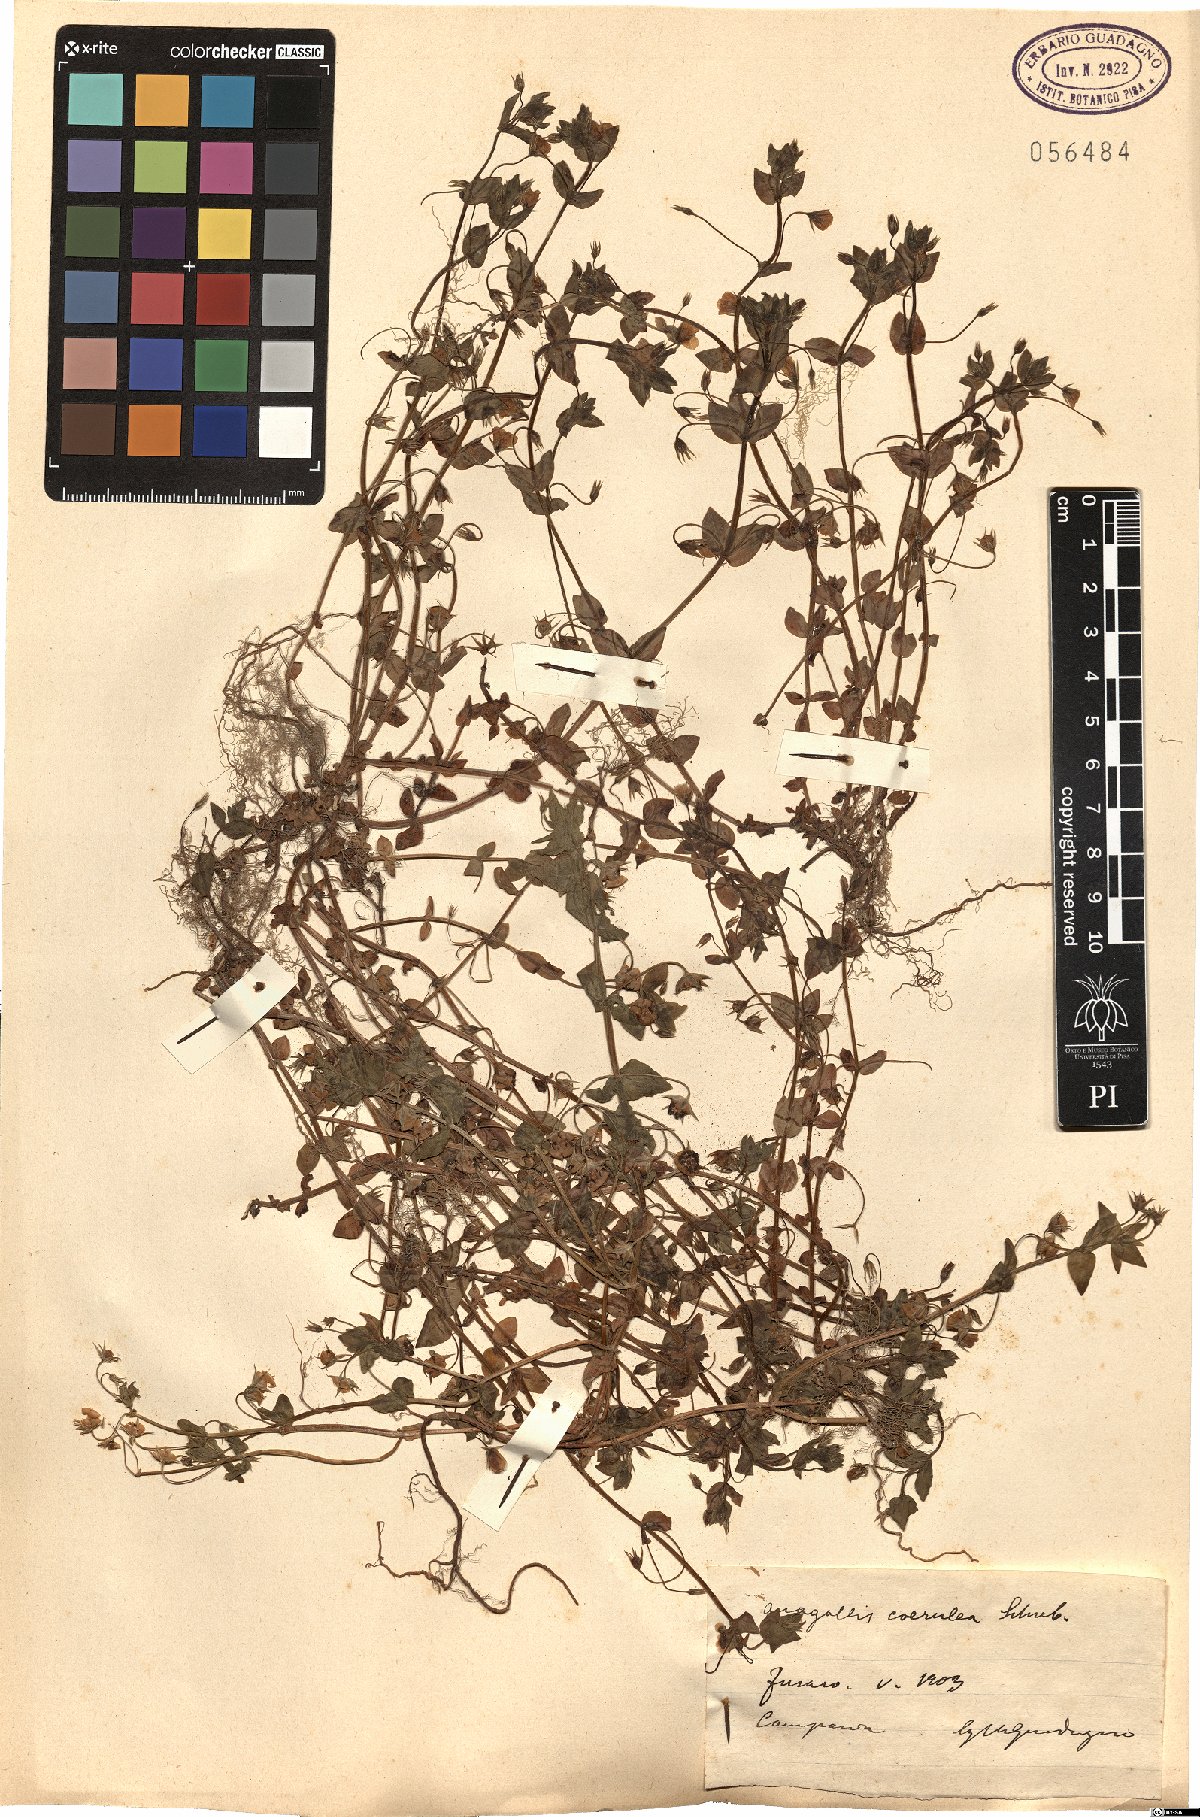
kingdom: Plantae
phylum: Tracheophyta
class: Magnoliopsida
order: Ericales
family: Primulaceae
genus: Lysimachia
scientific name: Lysimachia loeflingii
